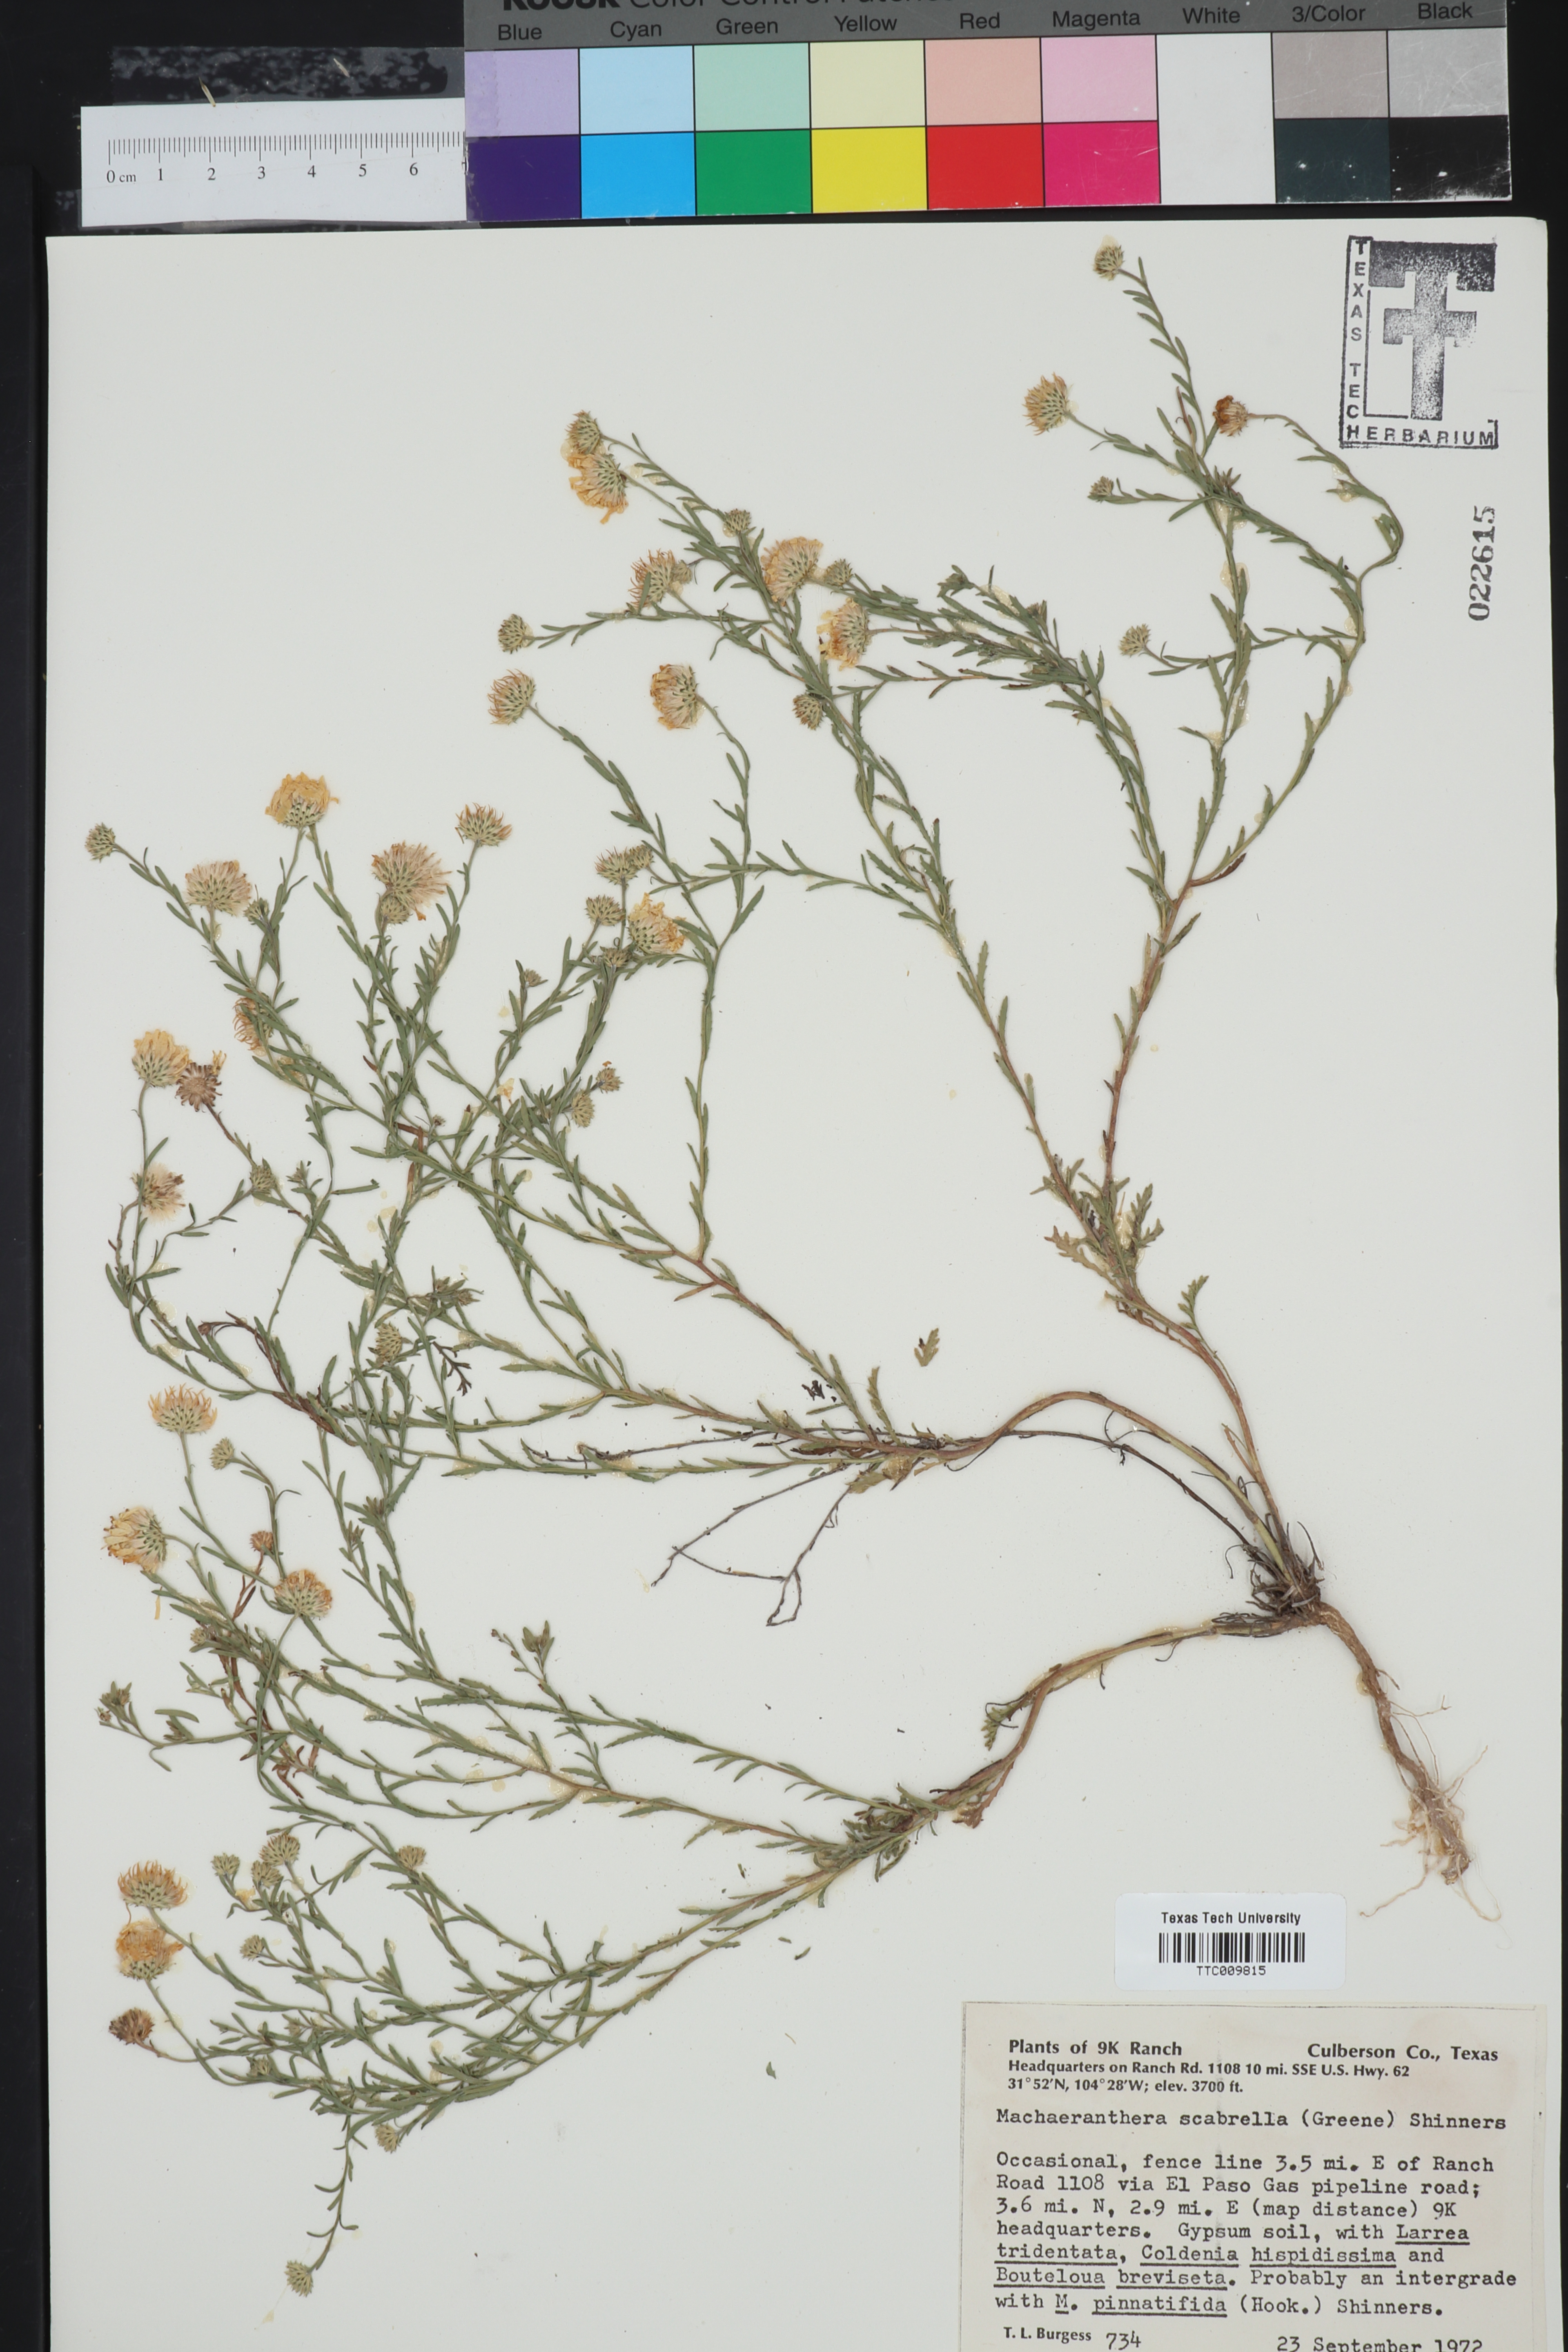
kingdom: Plantae
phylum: Tracheophyta
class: Magnoliopsida
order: Asterales
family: Asteraceae
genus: Xanthisma
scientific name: Xanthisma scabrellum
